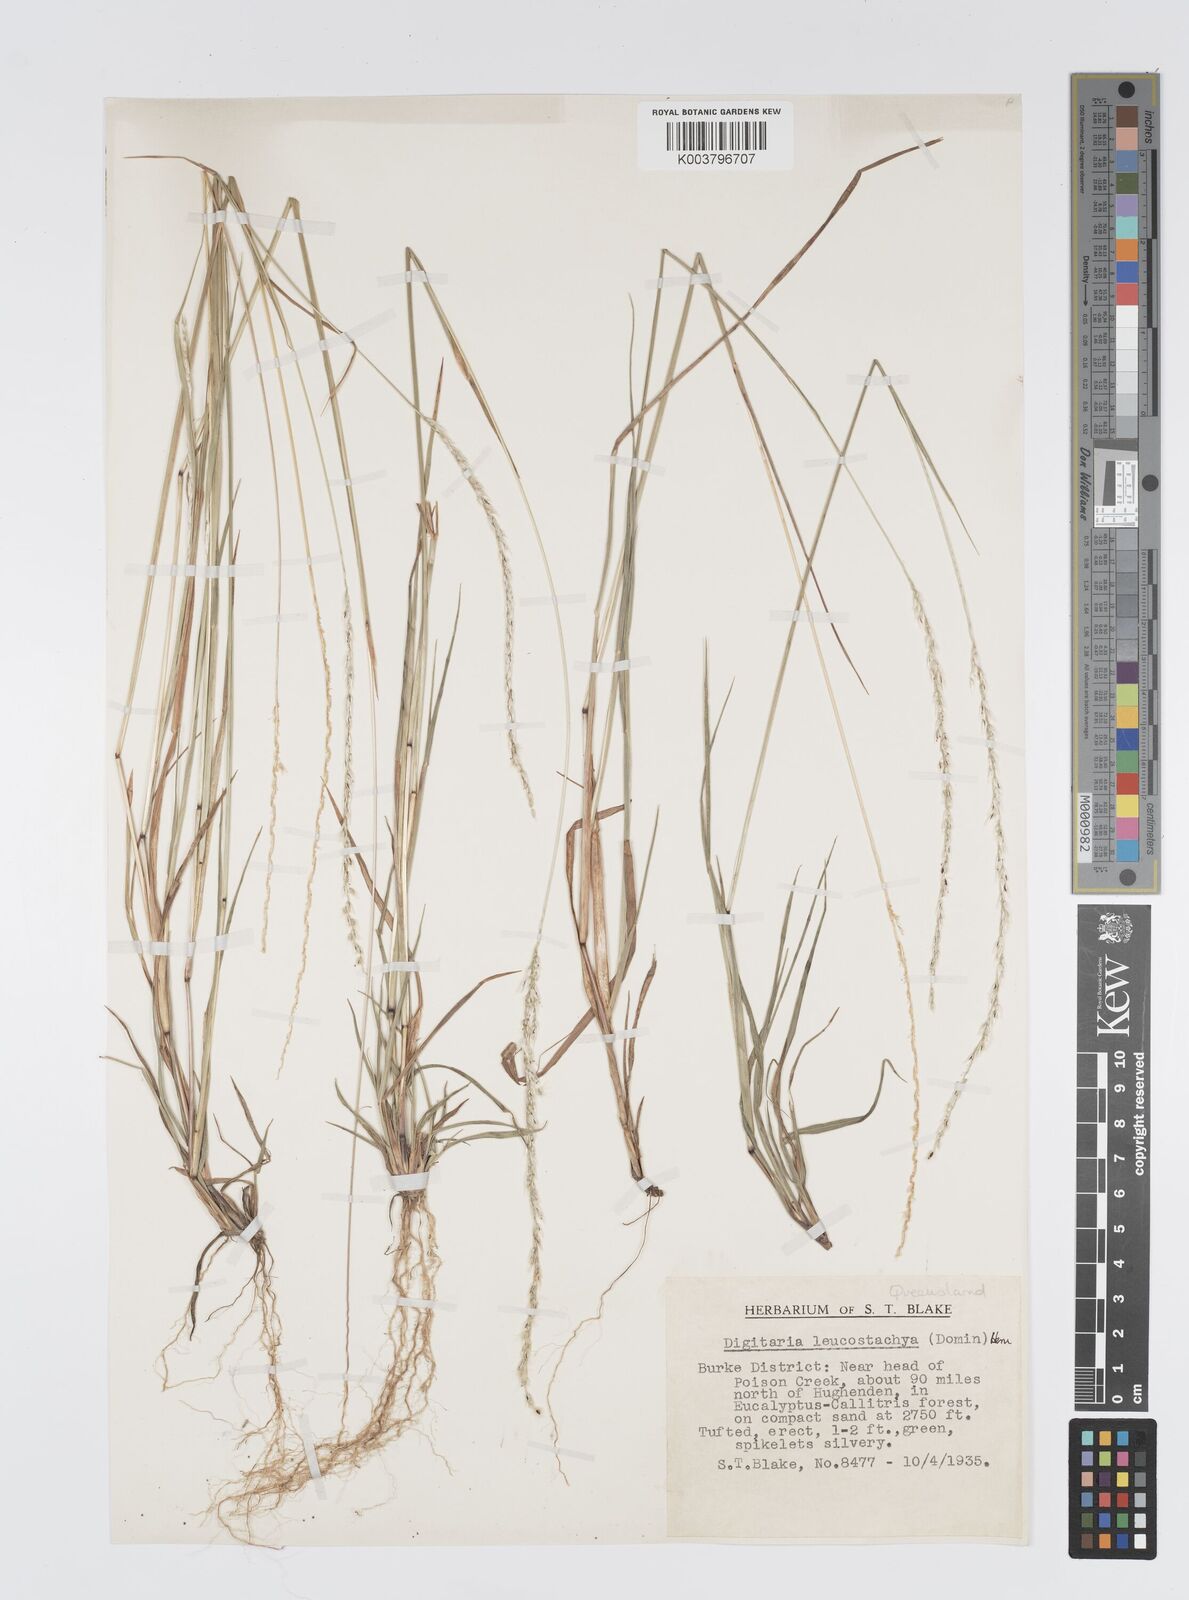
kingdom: Plantae
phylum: Tracheophyta
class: Liliopsida
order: Poales
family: Poaceae
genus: Digitaria
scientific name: Digitaria leucostachya
